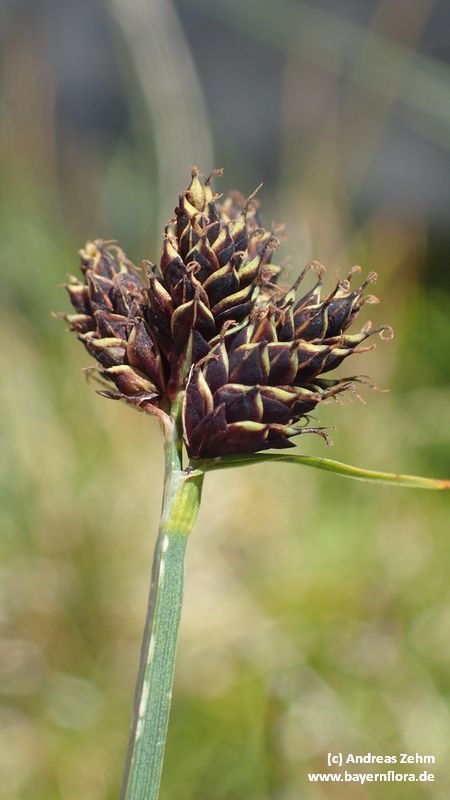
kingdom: Plantae
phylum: Tracheophyta
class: Liliopsida
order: Poales
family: Cyperaceae
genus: Carex
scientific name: Carex parviflora
